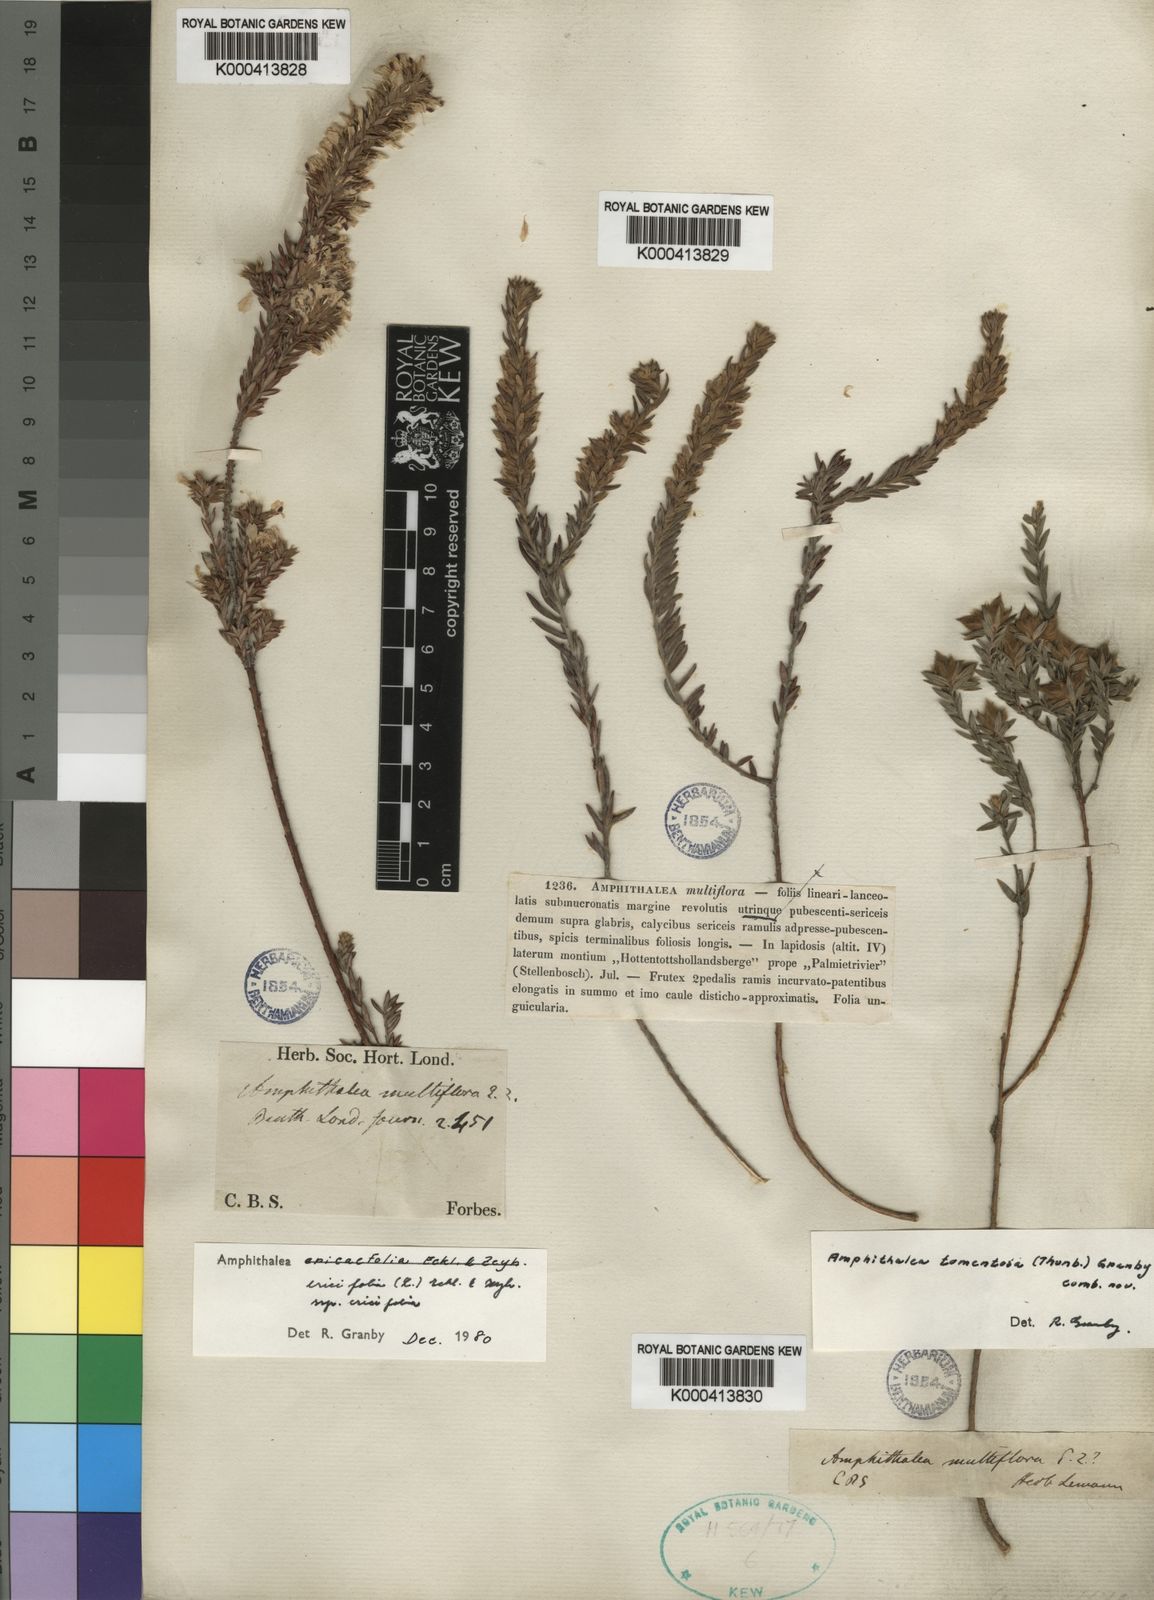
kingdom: Plantae
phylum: Tracheophyta
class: Magnoliopsida
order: Fabales
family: Fabaceae
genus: Amphithalea
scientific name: Amphithalea ericifolia
